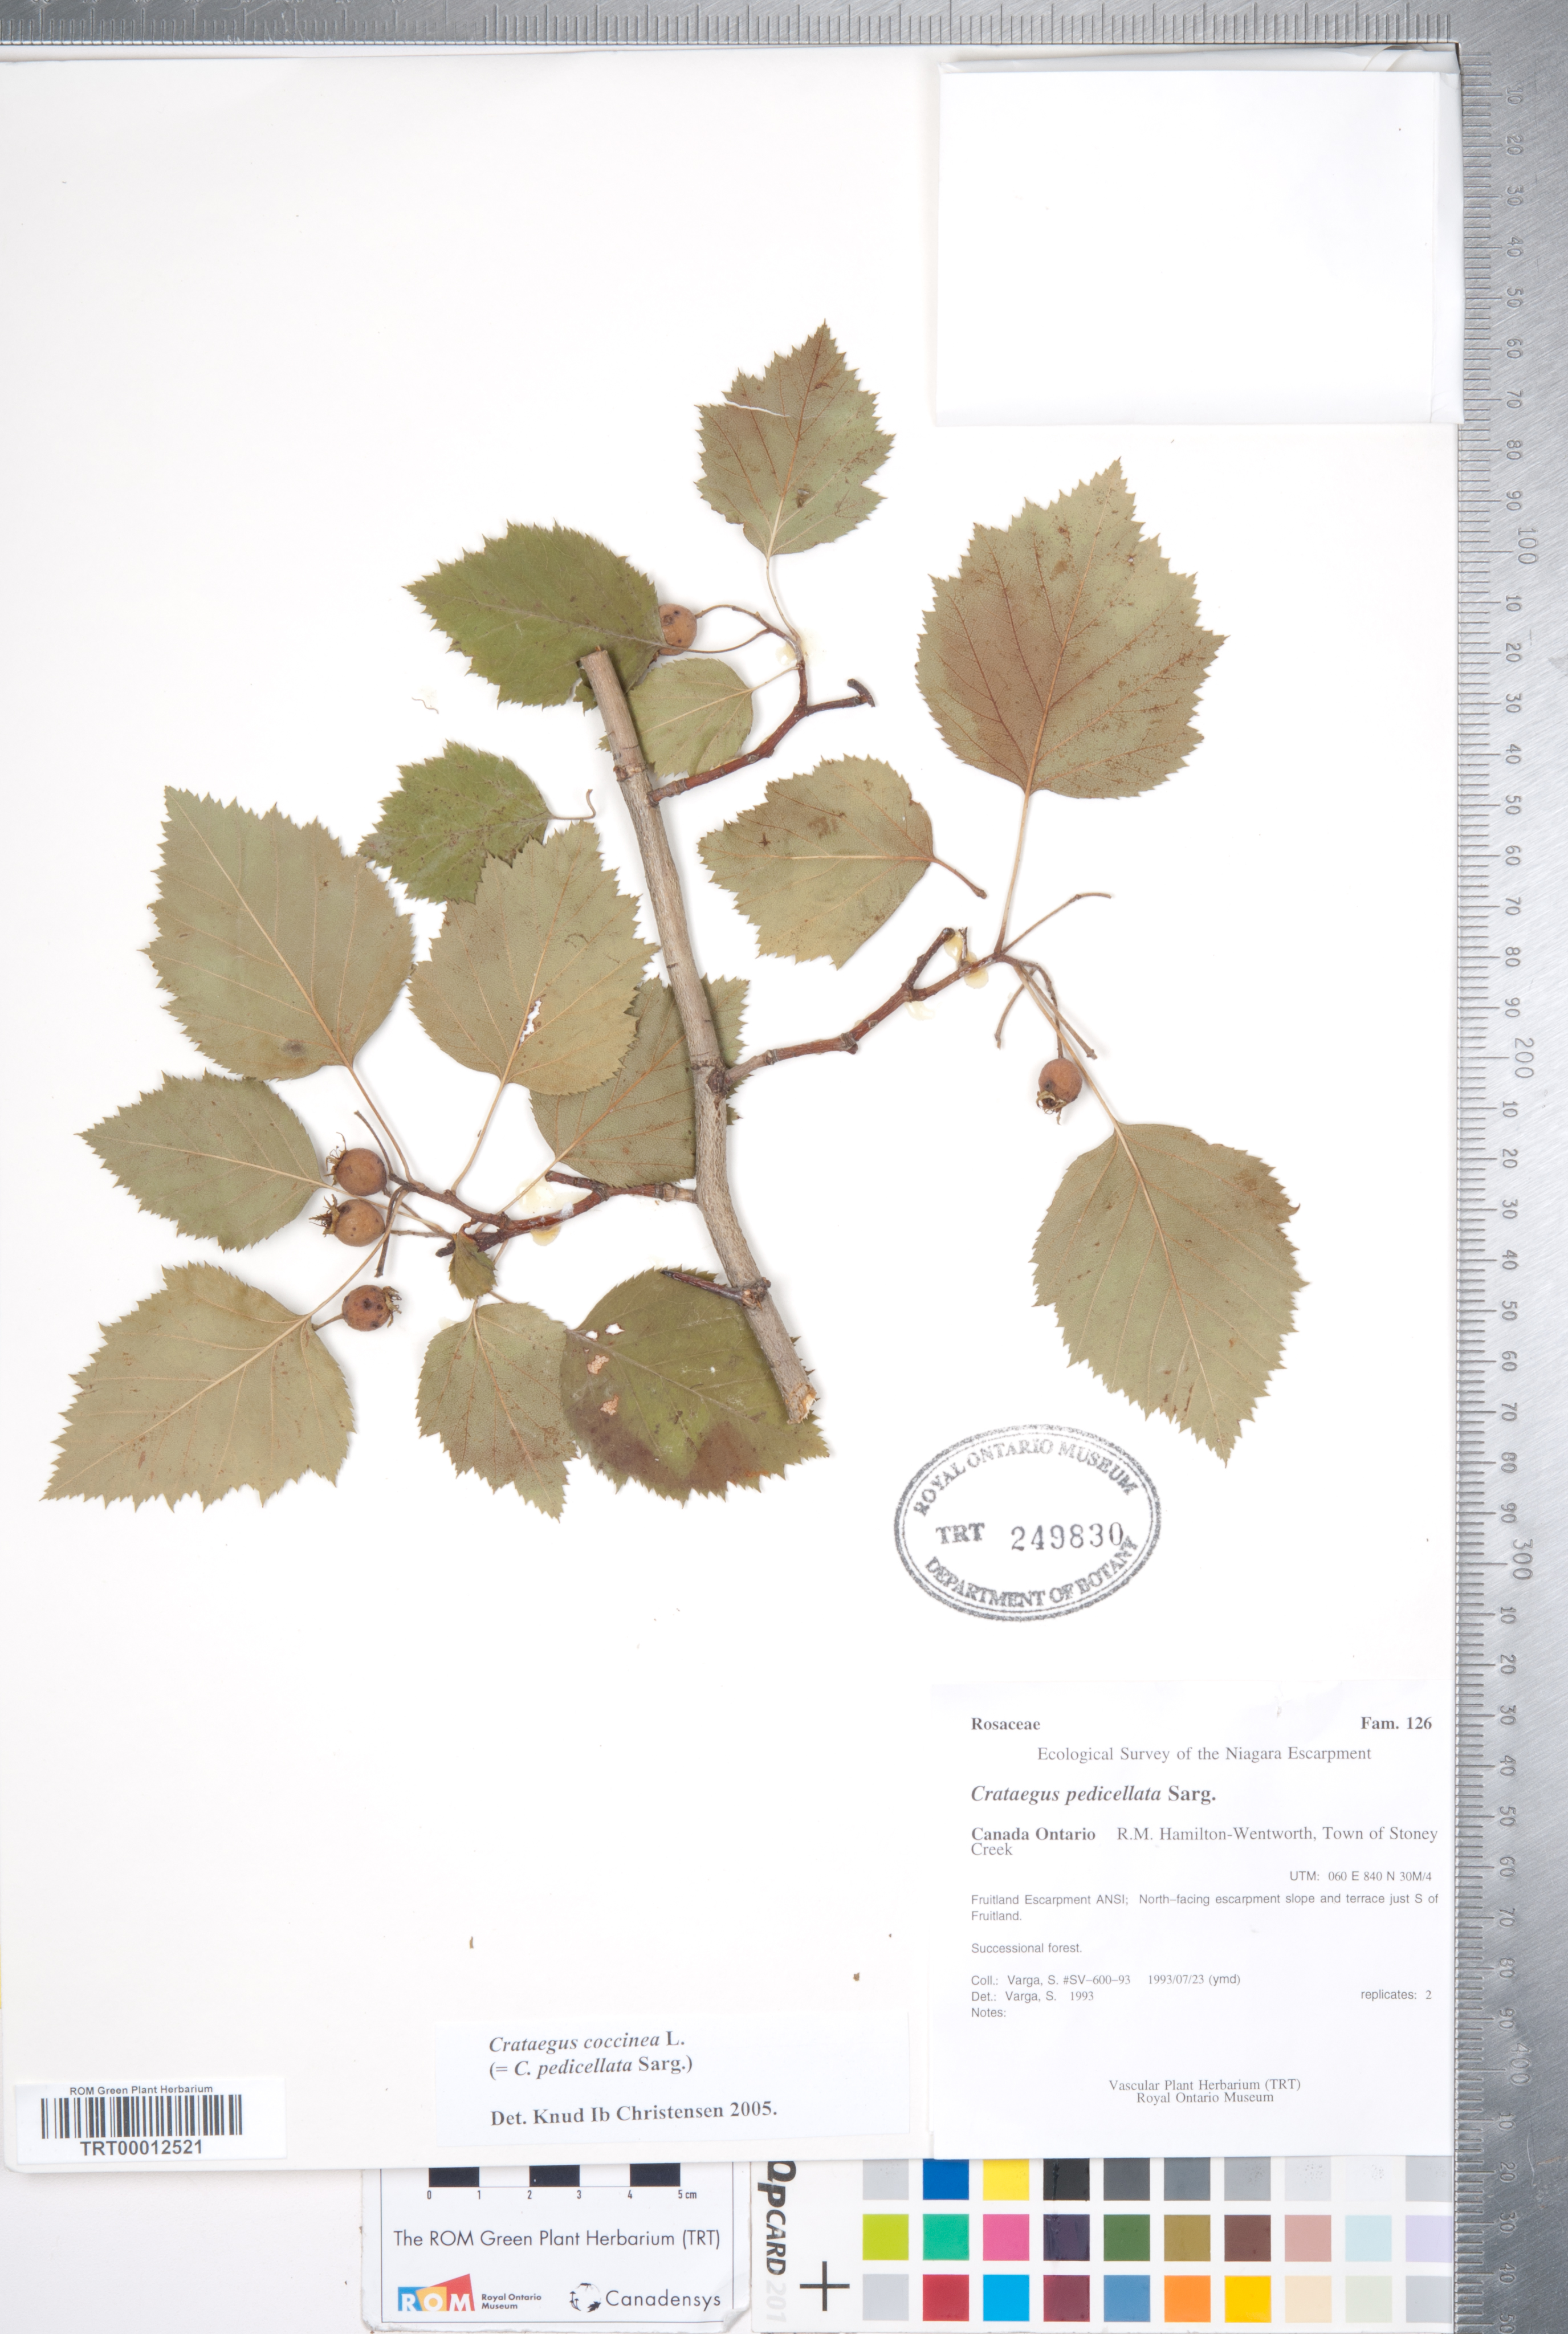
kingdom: Plantae
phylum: Tracheophyta
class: Magnoliopsida
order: Rosales
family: Rosaceae
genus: Crataegus
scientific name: Crataegus coccinea
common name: Scarlet hawthorn
